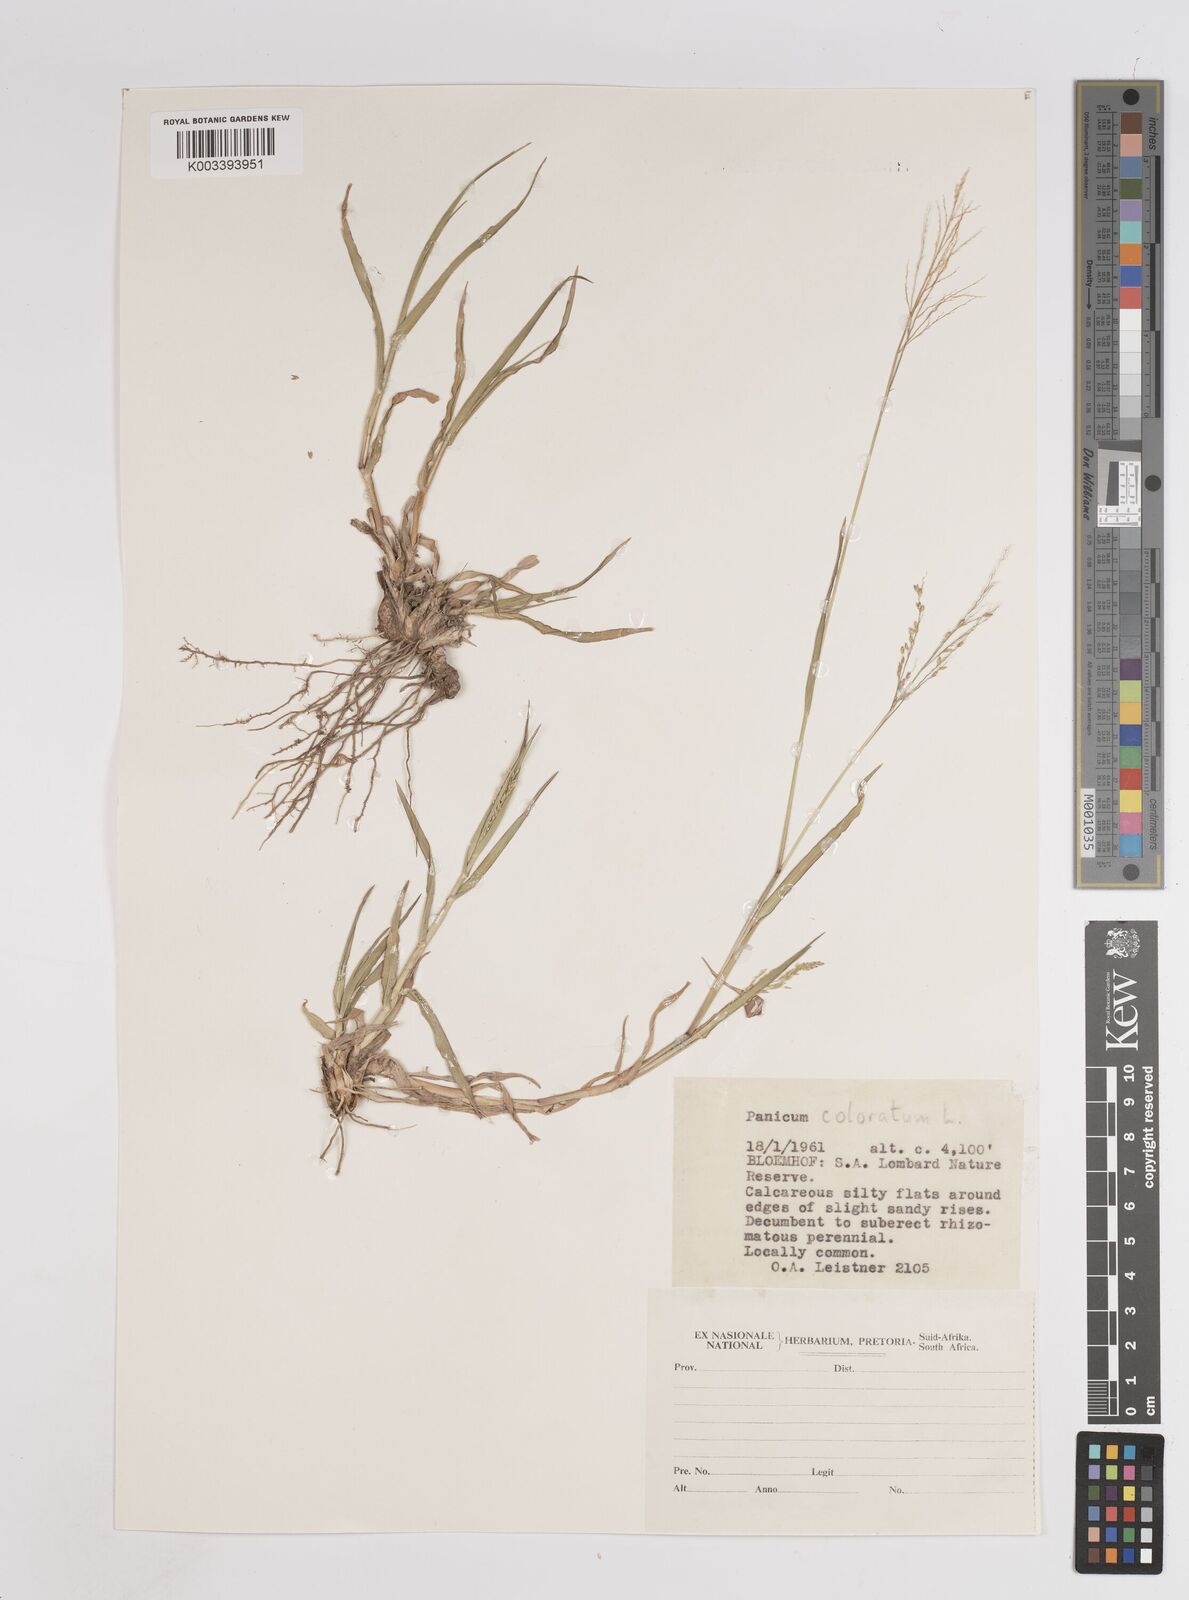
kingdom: Plantae
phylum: Tracheophyta
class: Liliopsida
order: Poales
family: Poaceae
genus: Panicum
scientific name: Panicum coloratum
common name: Kleingrass
